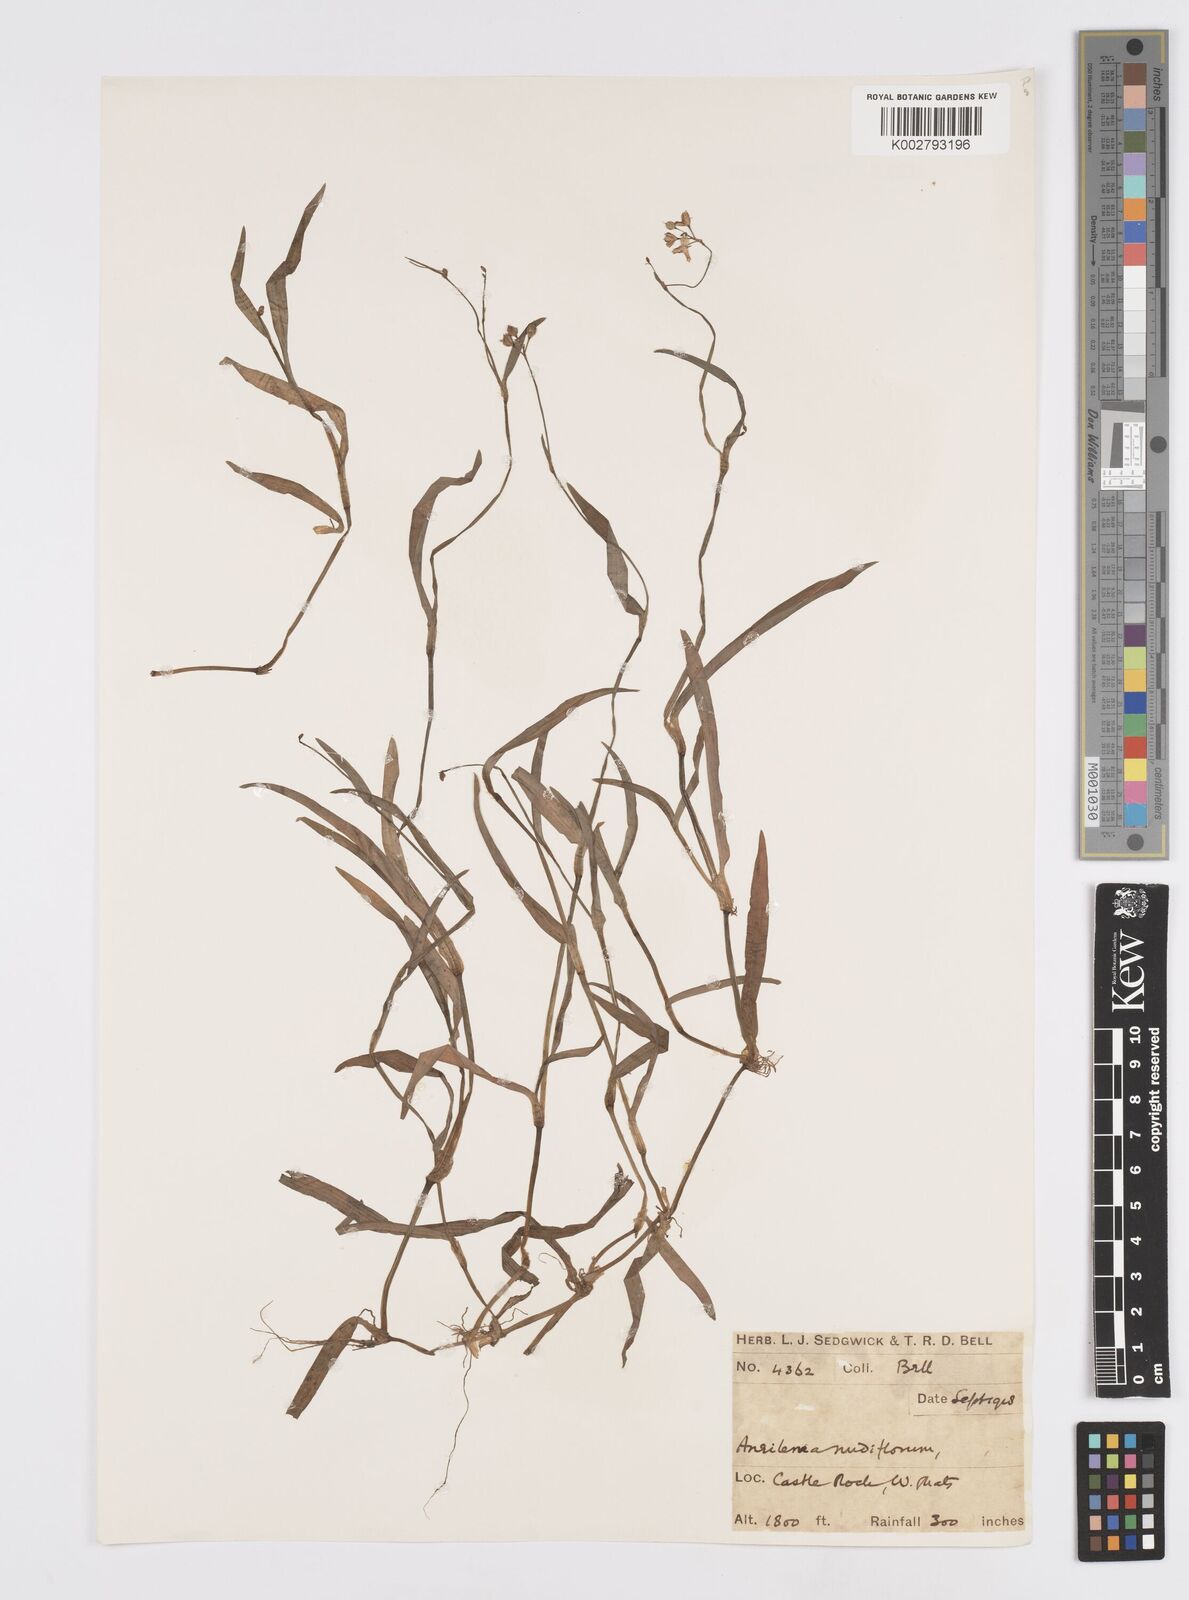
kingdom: Plantae
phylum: Tracheophyta
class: Liliopsida
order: Commelinales
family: Commelinaceae
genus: Murdannia
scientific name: Murdannia nudiflora
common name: Nakedstem dewflower
